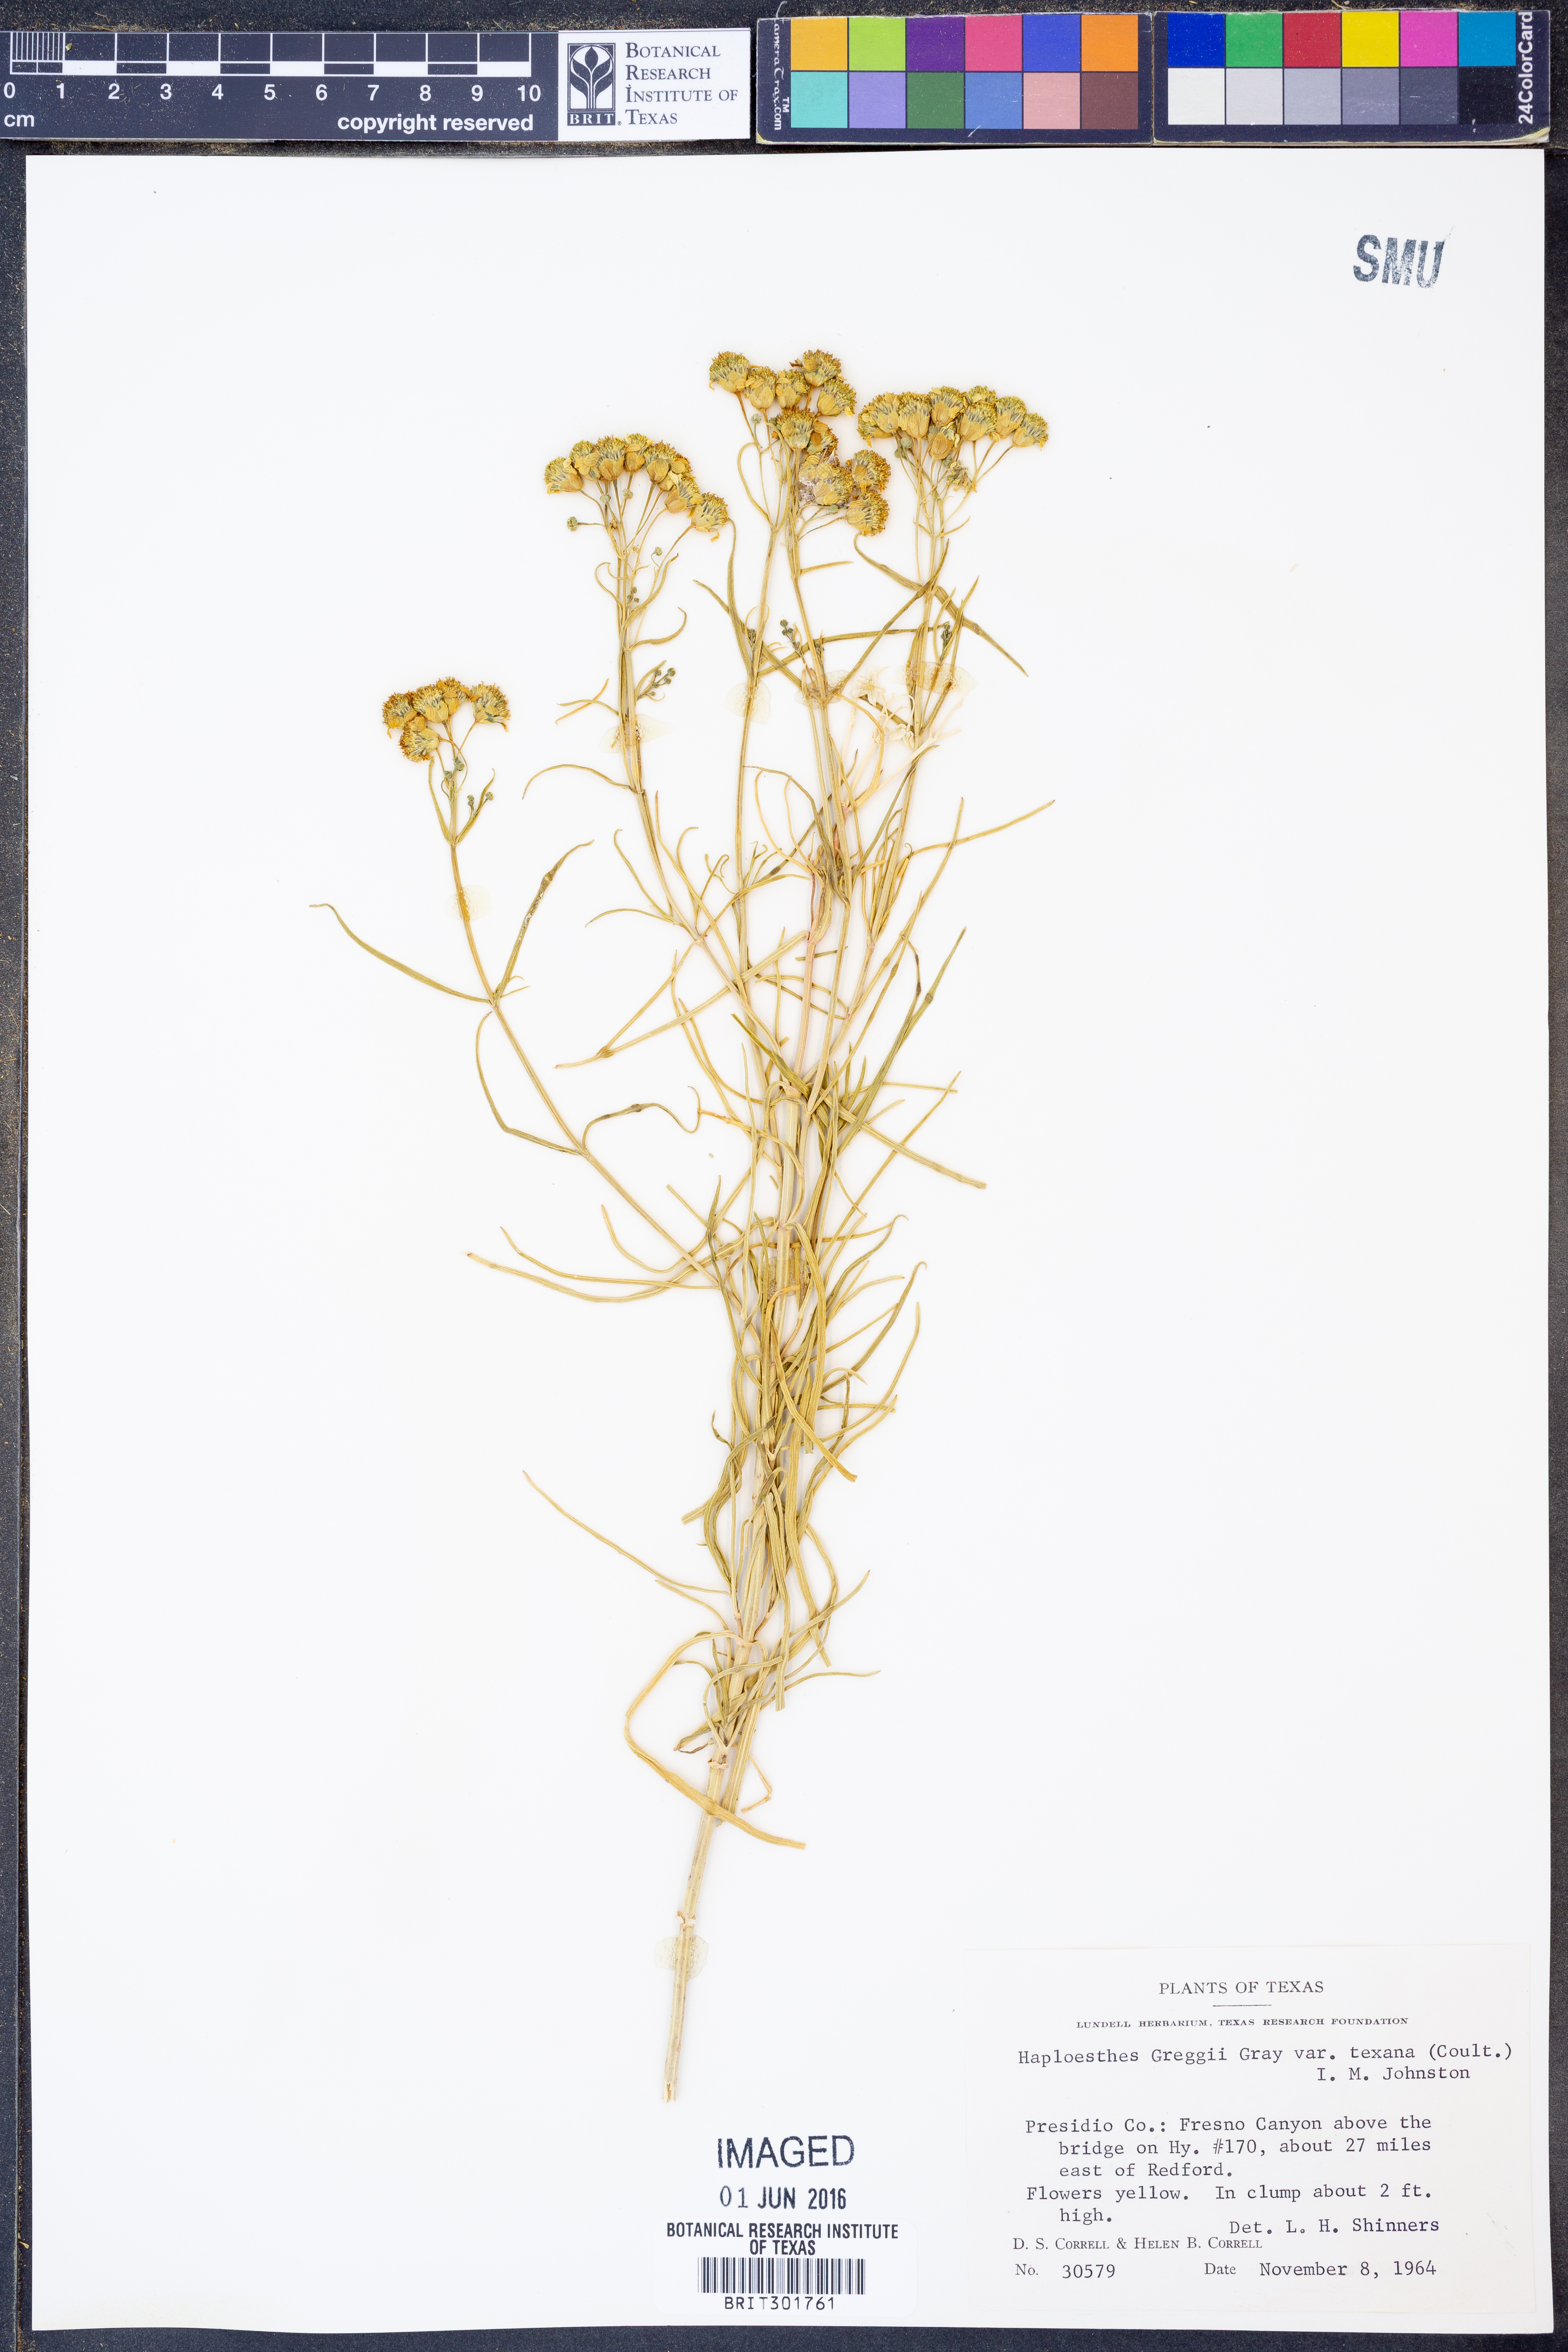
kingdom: Plantae
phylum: Tracheophyta
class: Magnoliopsida
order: Asterales
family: Asteraceae
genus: Haploesthes
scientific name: Haploesthes greggii
